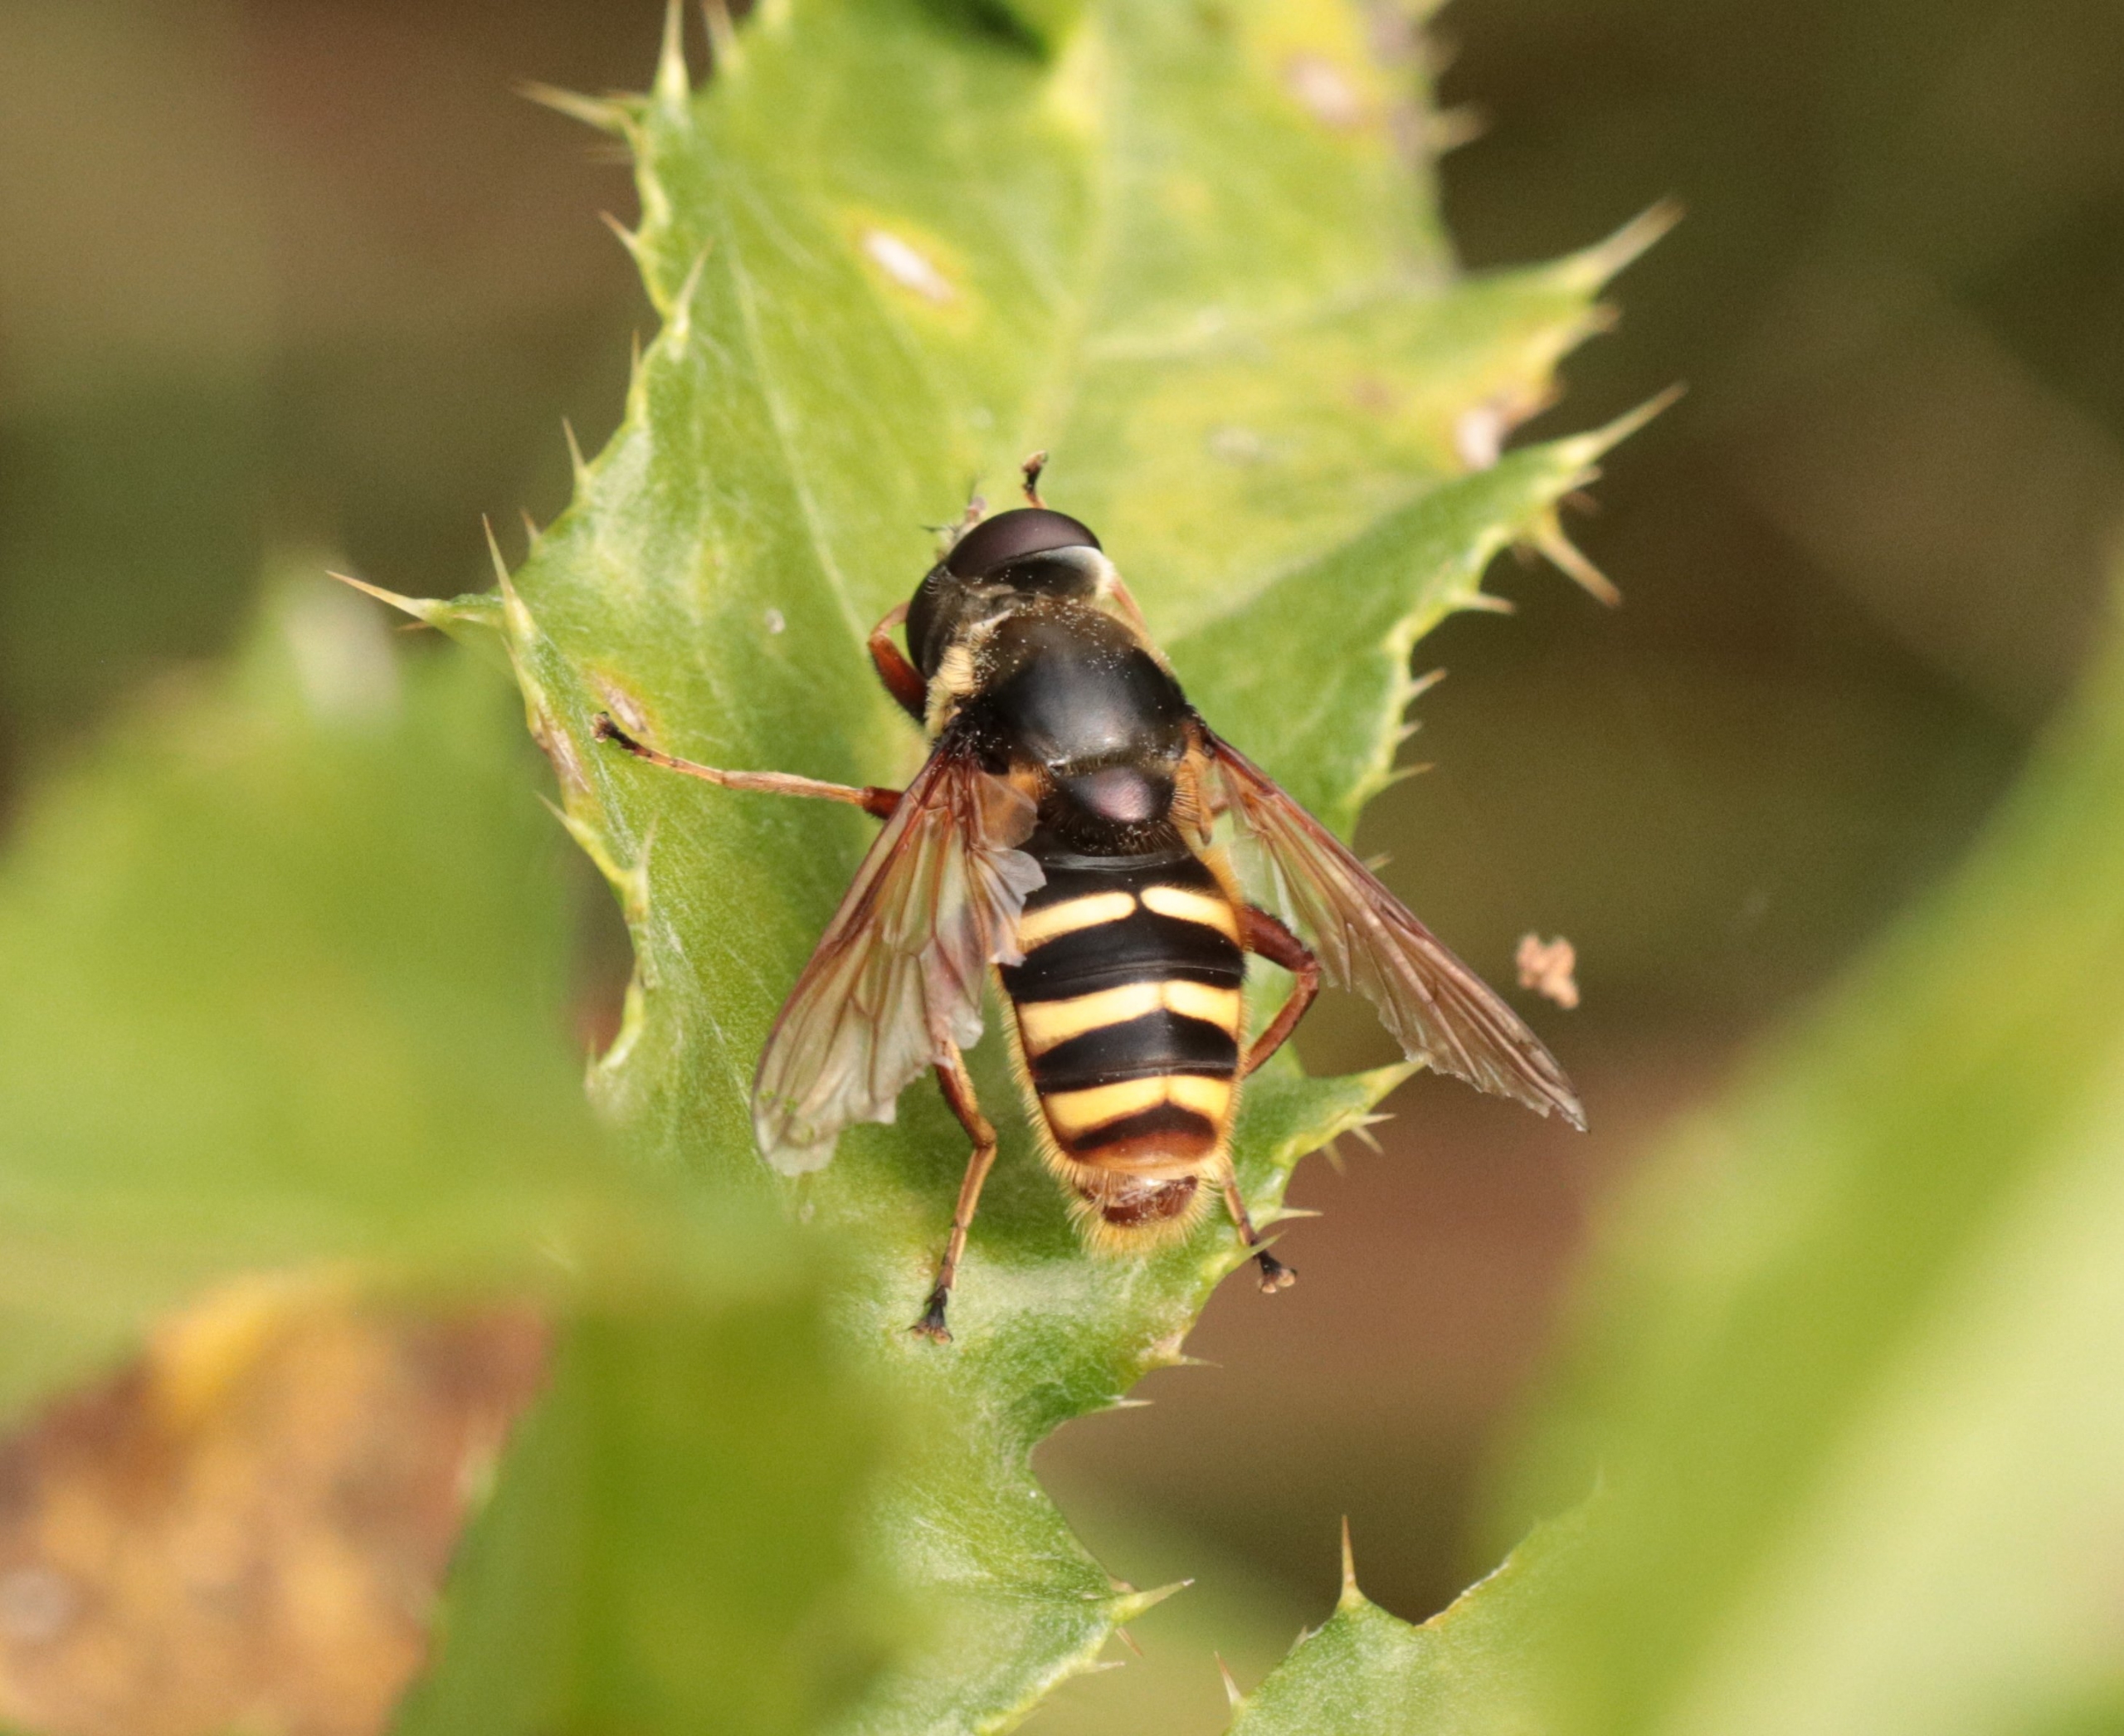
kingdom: Animalia
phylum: Arthropoda
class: Insecta
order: Diptera
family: Syrphidae
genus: Sericomyia
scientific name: Sericomyia silentis
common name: Tørve-silkesvirreflue
